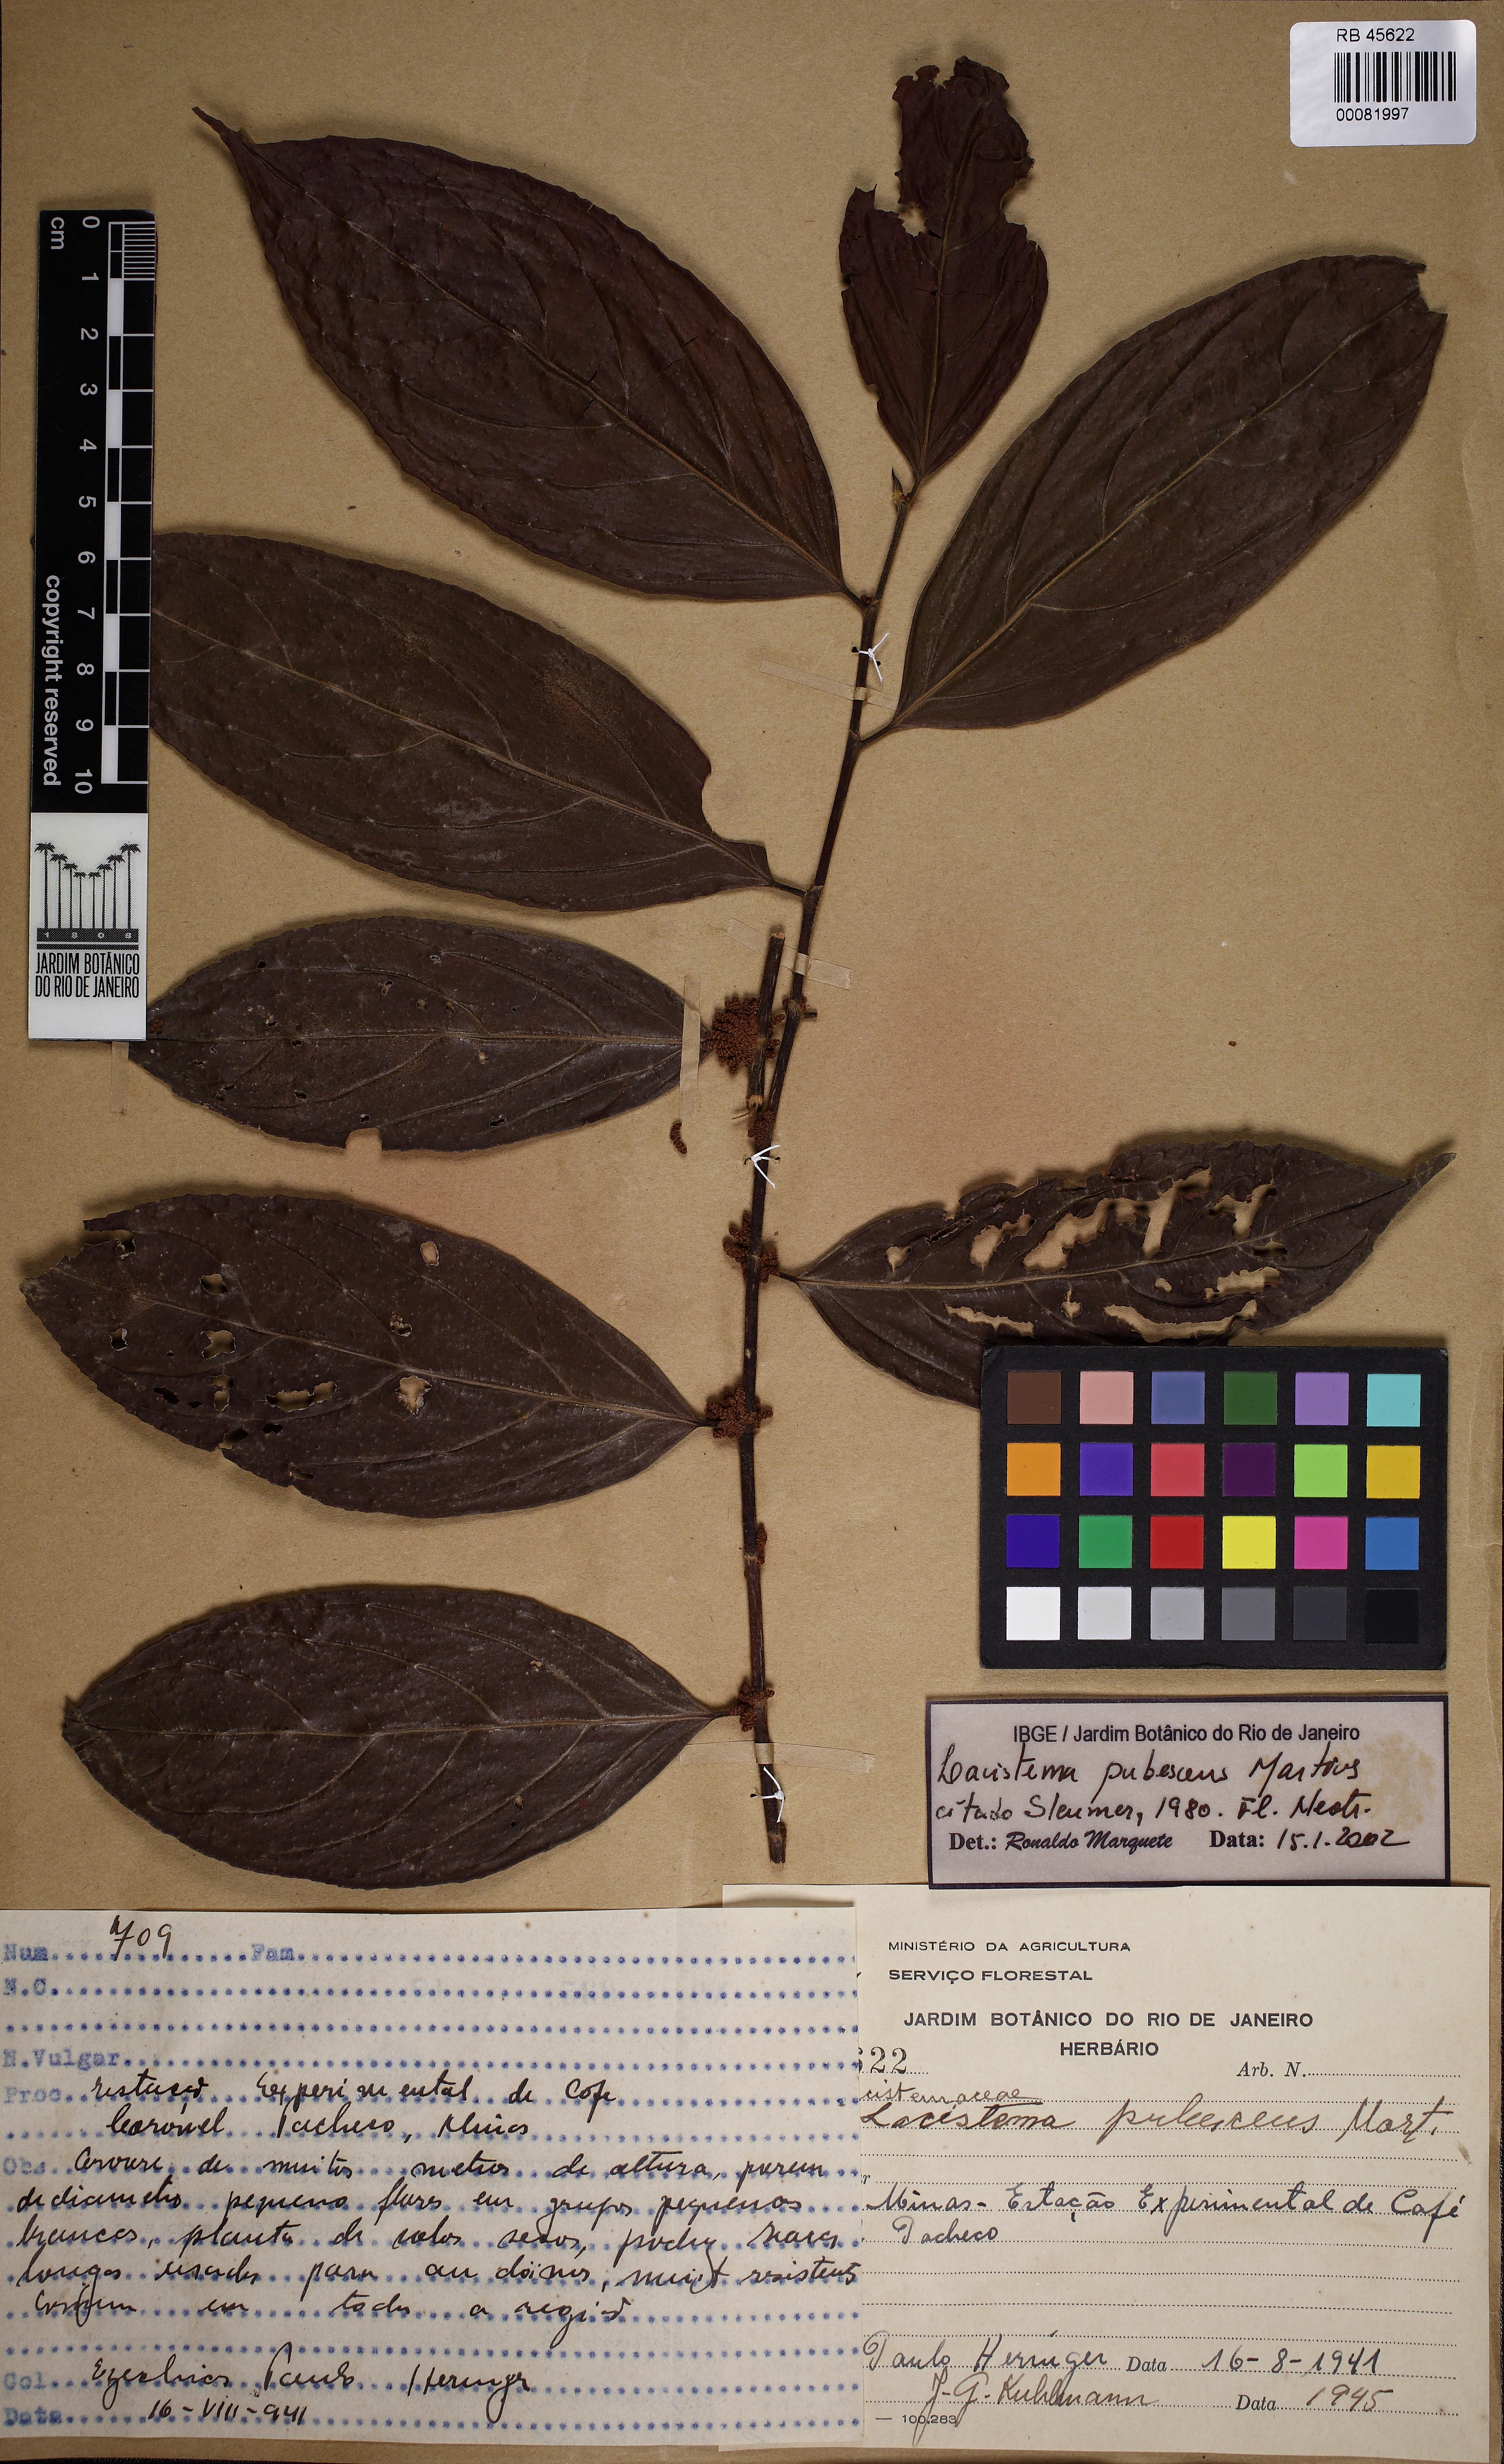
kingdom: Plantae
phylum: Tracheophyta
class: Magnoliopsida
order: Malpighiales
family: Lacistemataceae
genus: Lacistema
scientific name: Lacistema pubescens
